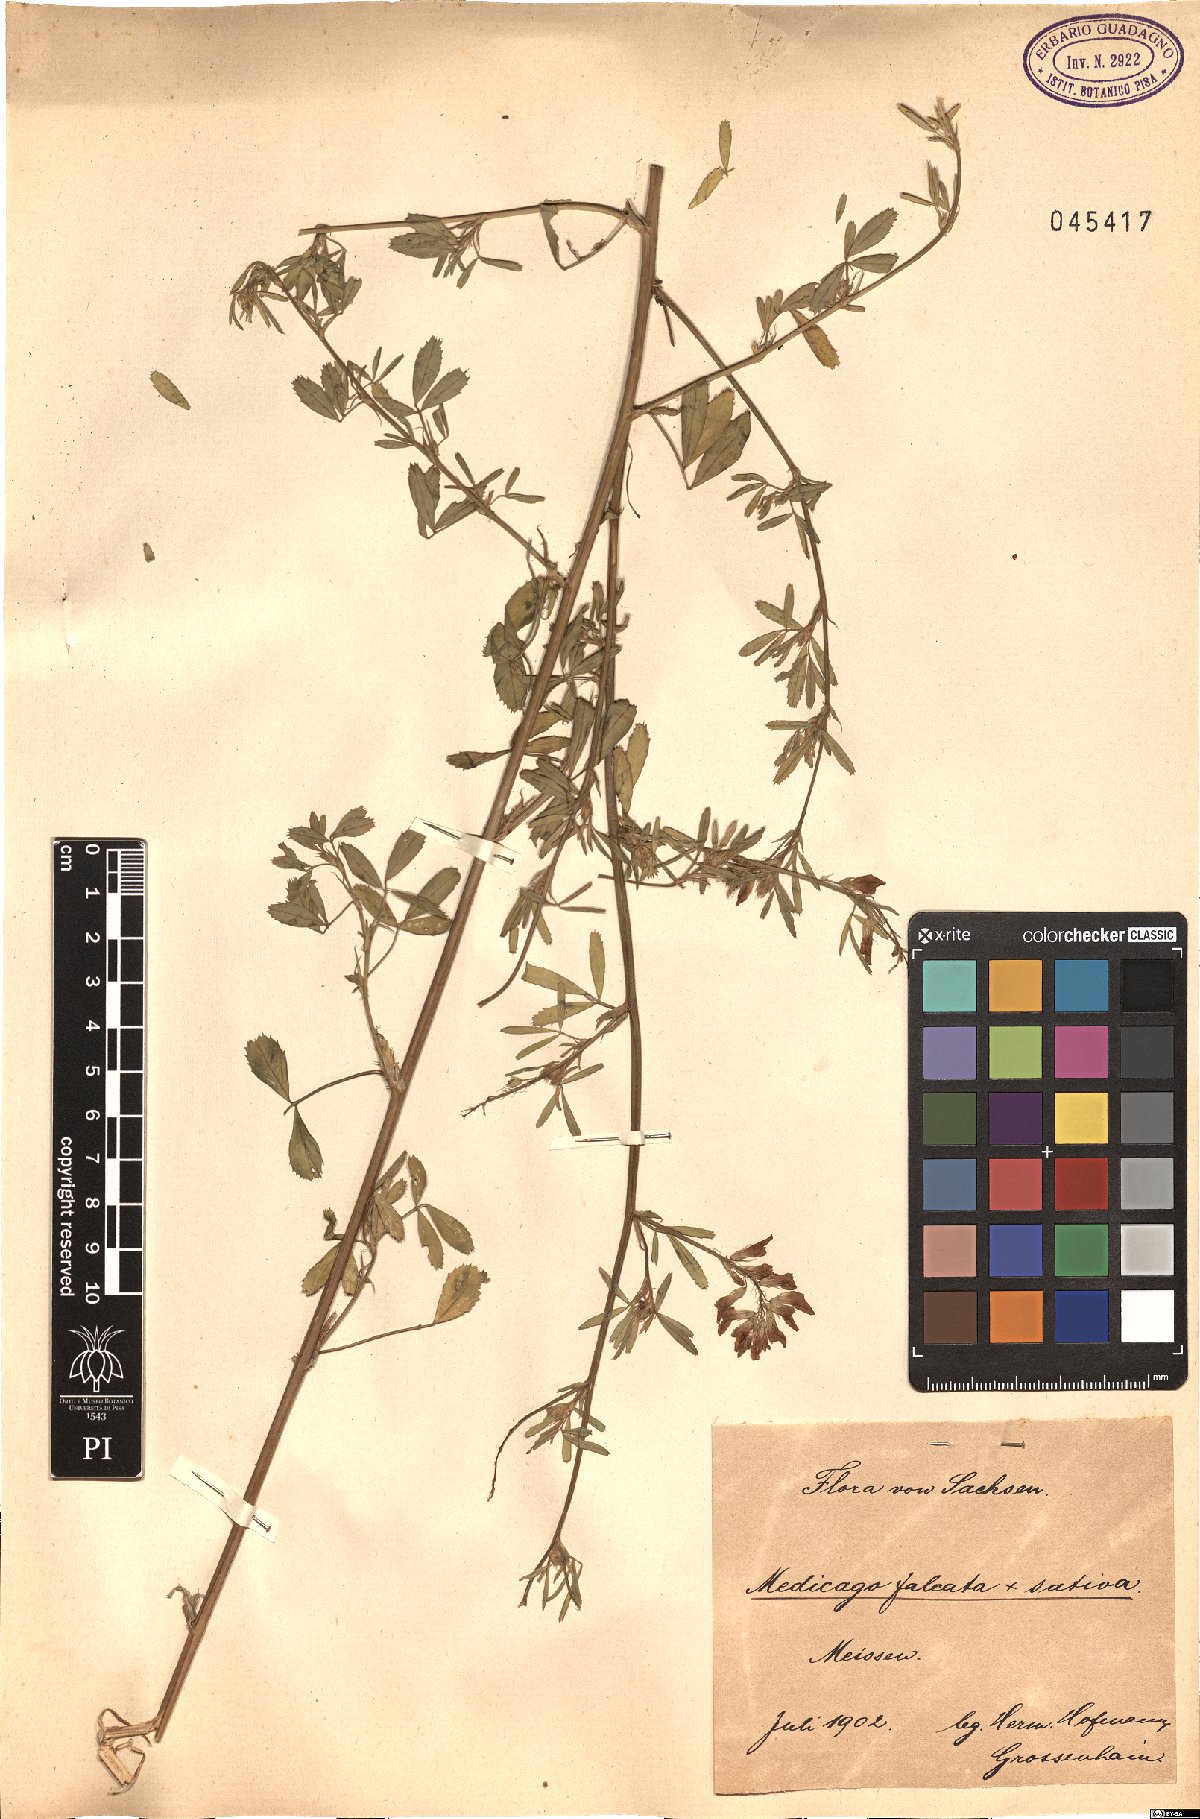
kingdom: Plantae
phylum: Tracheophyta
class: Magnoliopsida
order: Fabales
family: Fabaceae
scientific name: Fabaceae
